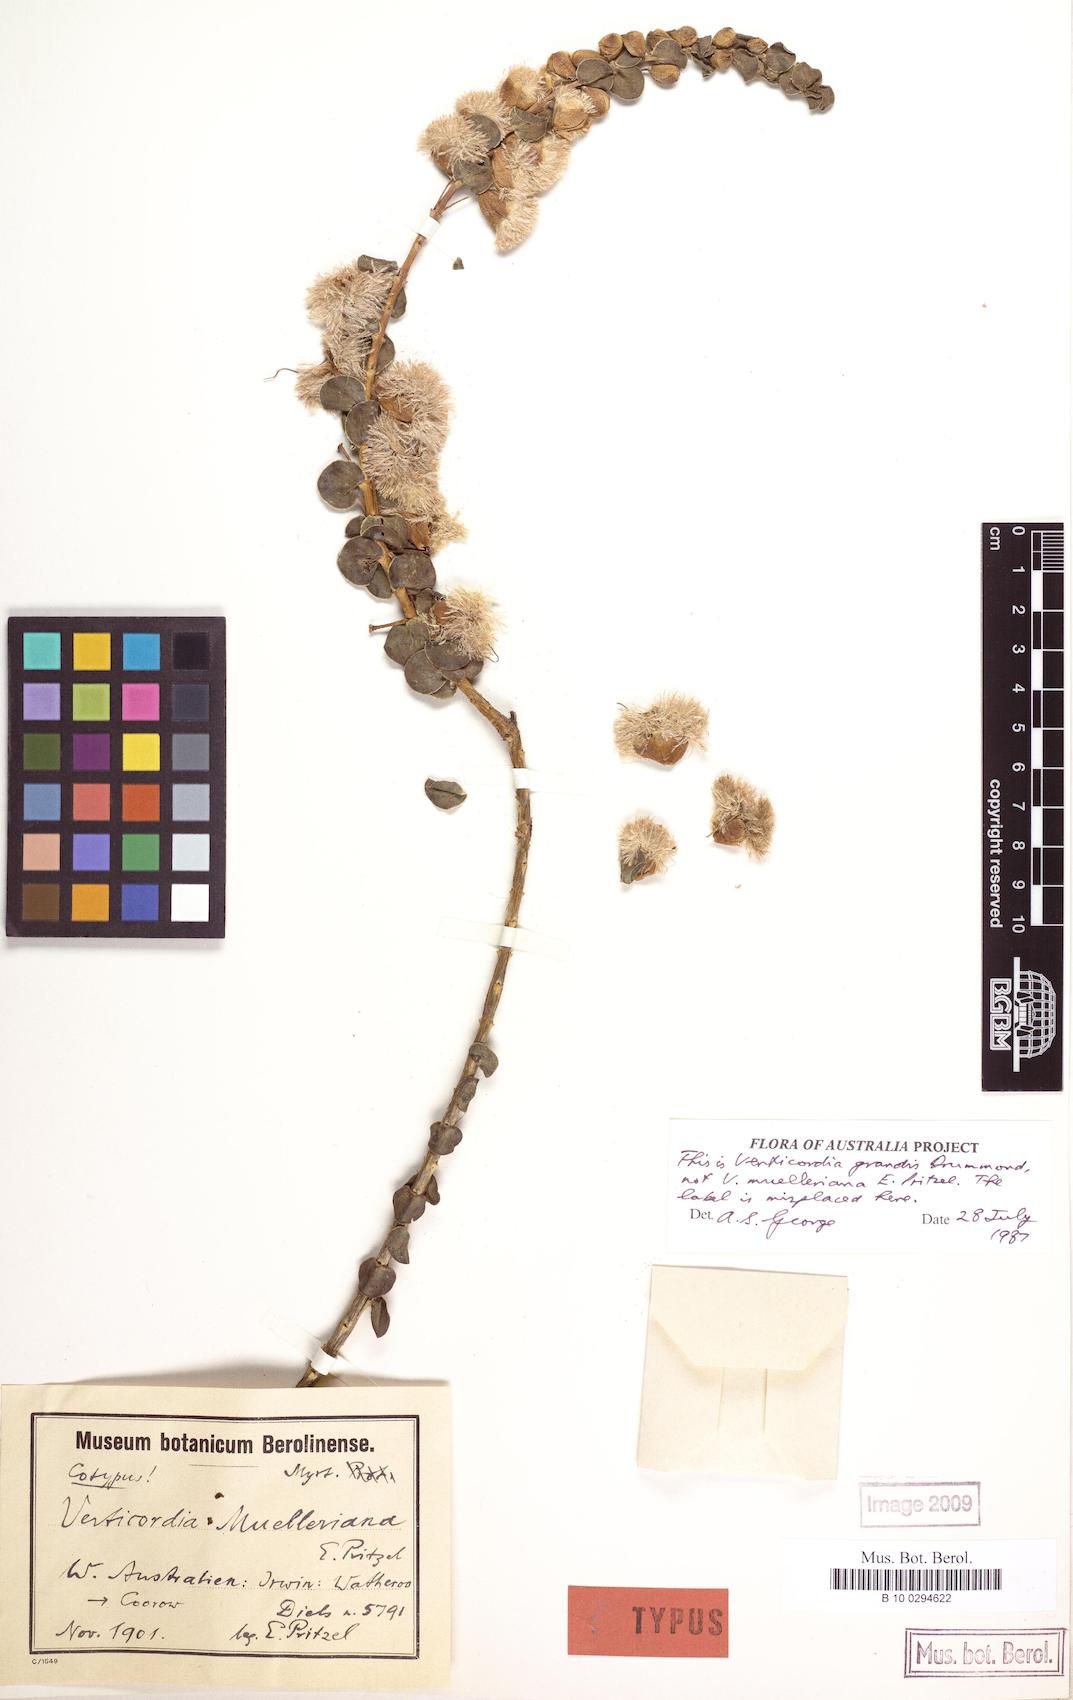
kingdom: Plantae
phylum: Tracheophyta
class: Magnoliopsida
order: Myrtales
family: Myrtaceae
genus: Verticordia
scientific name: Verticordia grandis
